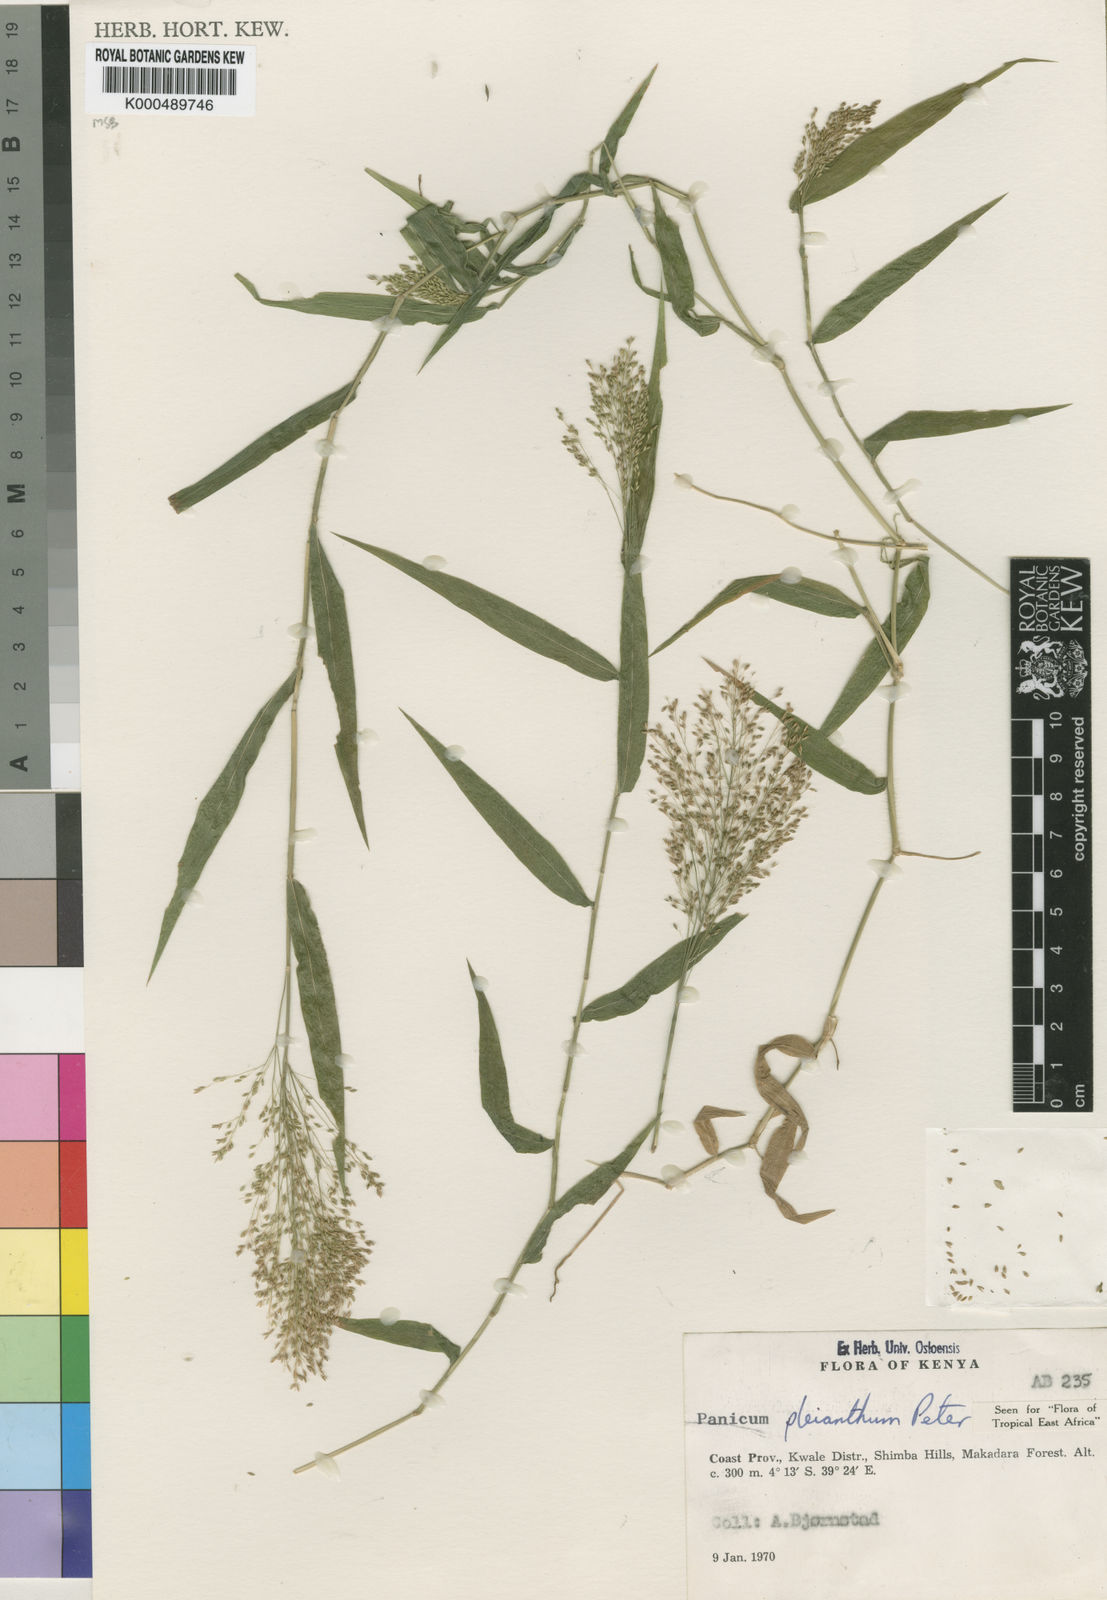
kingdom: Plantae
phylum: Tracheophyta
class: Liliopsida
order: Poales
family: Poaceae
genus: Panicum
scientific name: Panicum pleianthum
